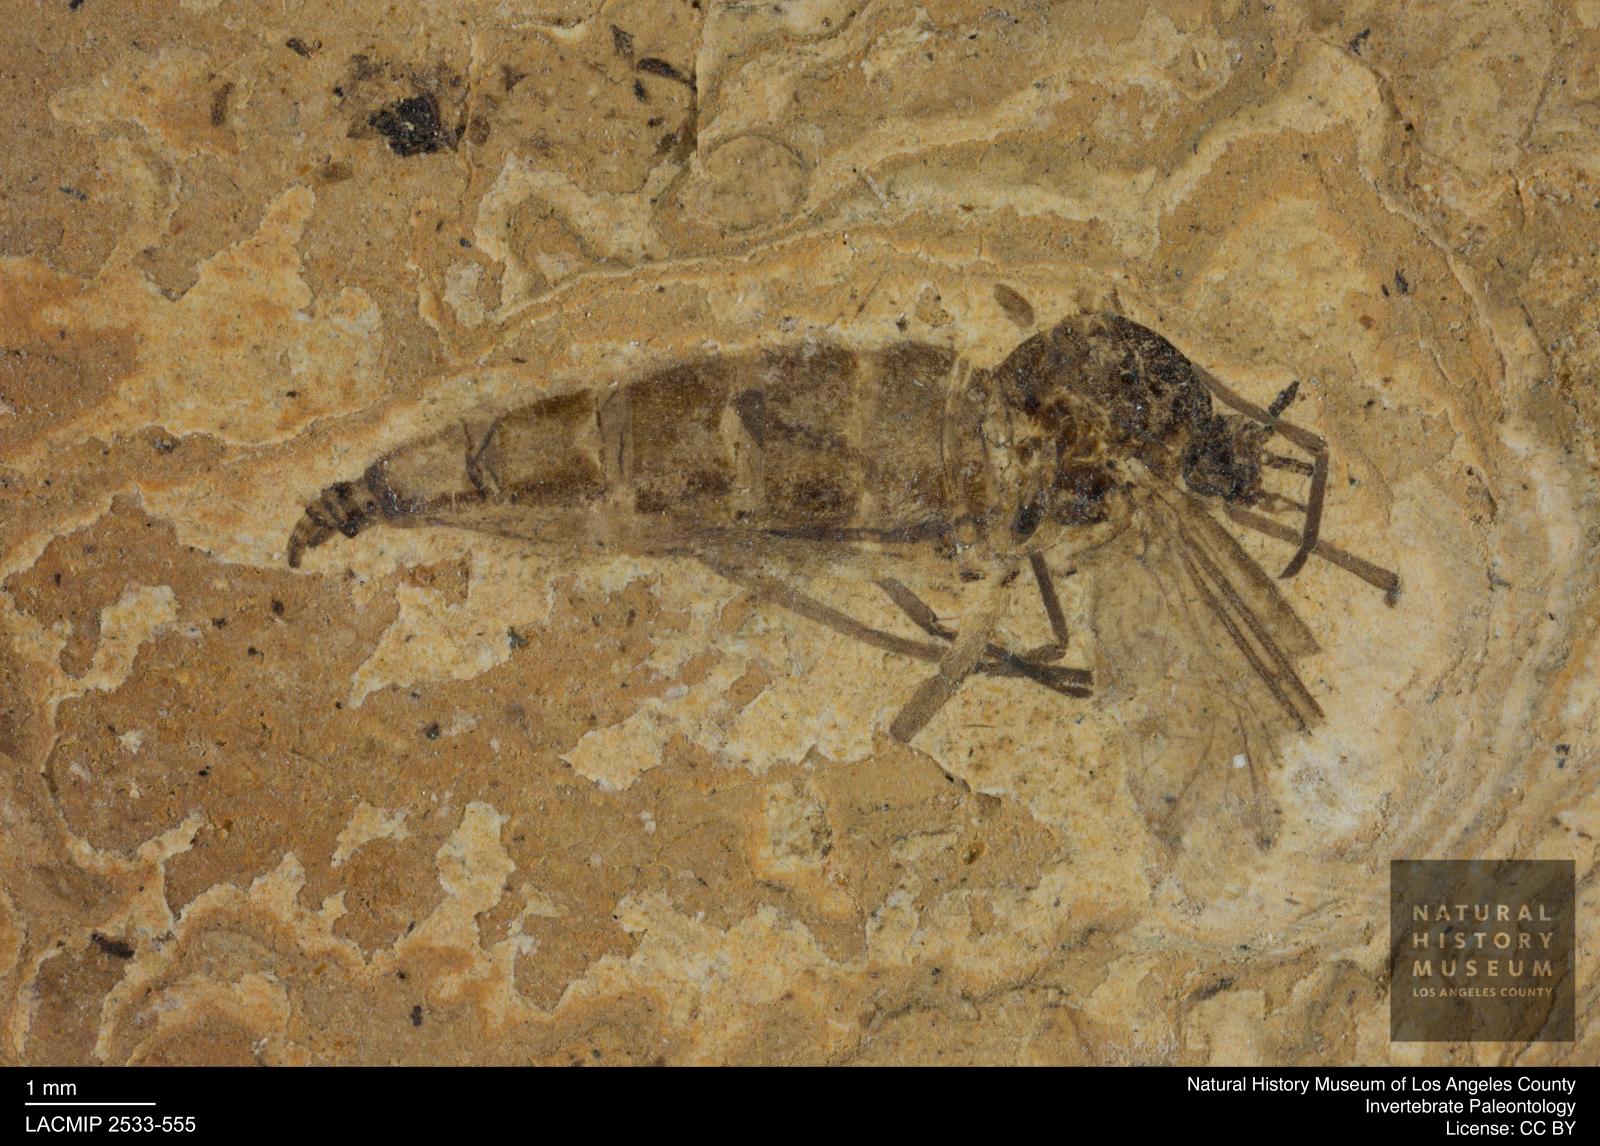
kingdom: Animalia
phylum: Arthropoda
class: Insecta
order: Diptera
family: Sciaridae
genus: Sciara
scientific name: Sciara aulica
